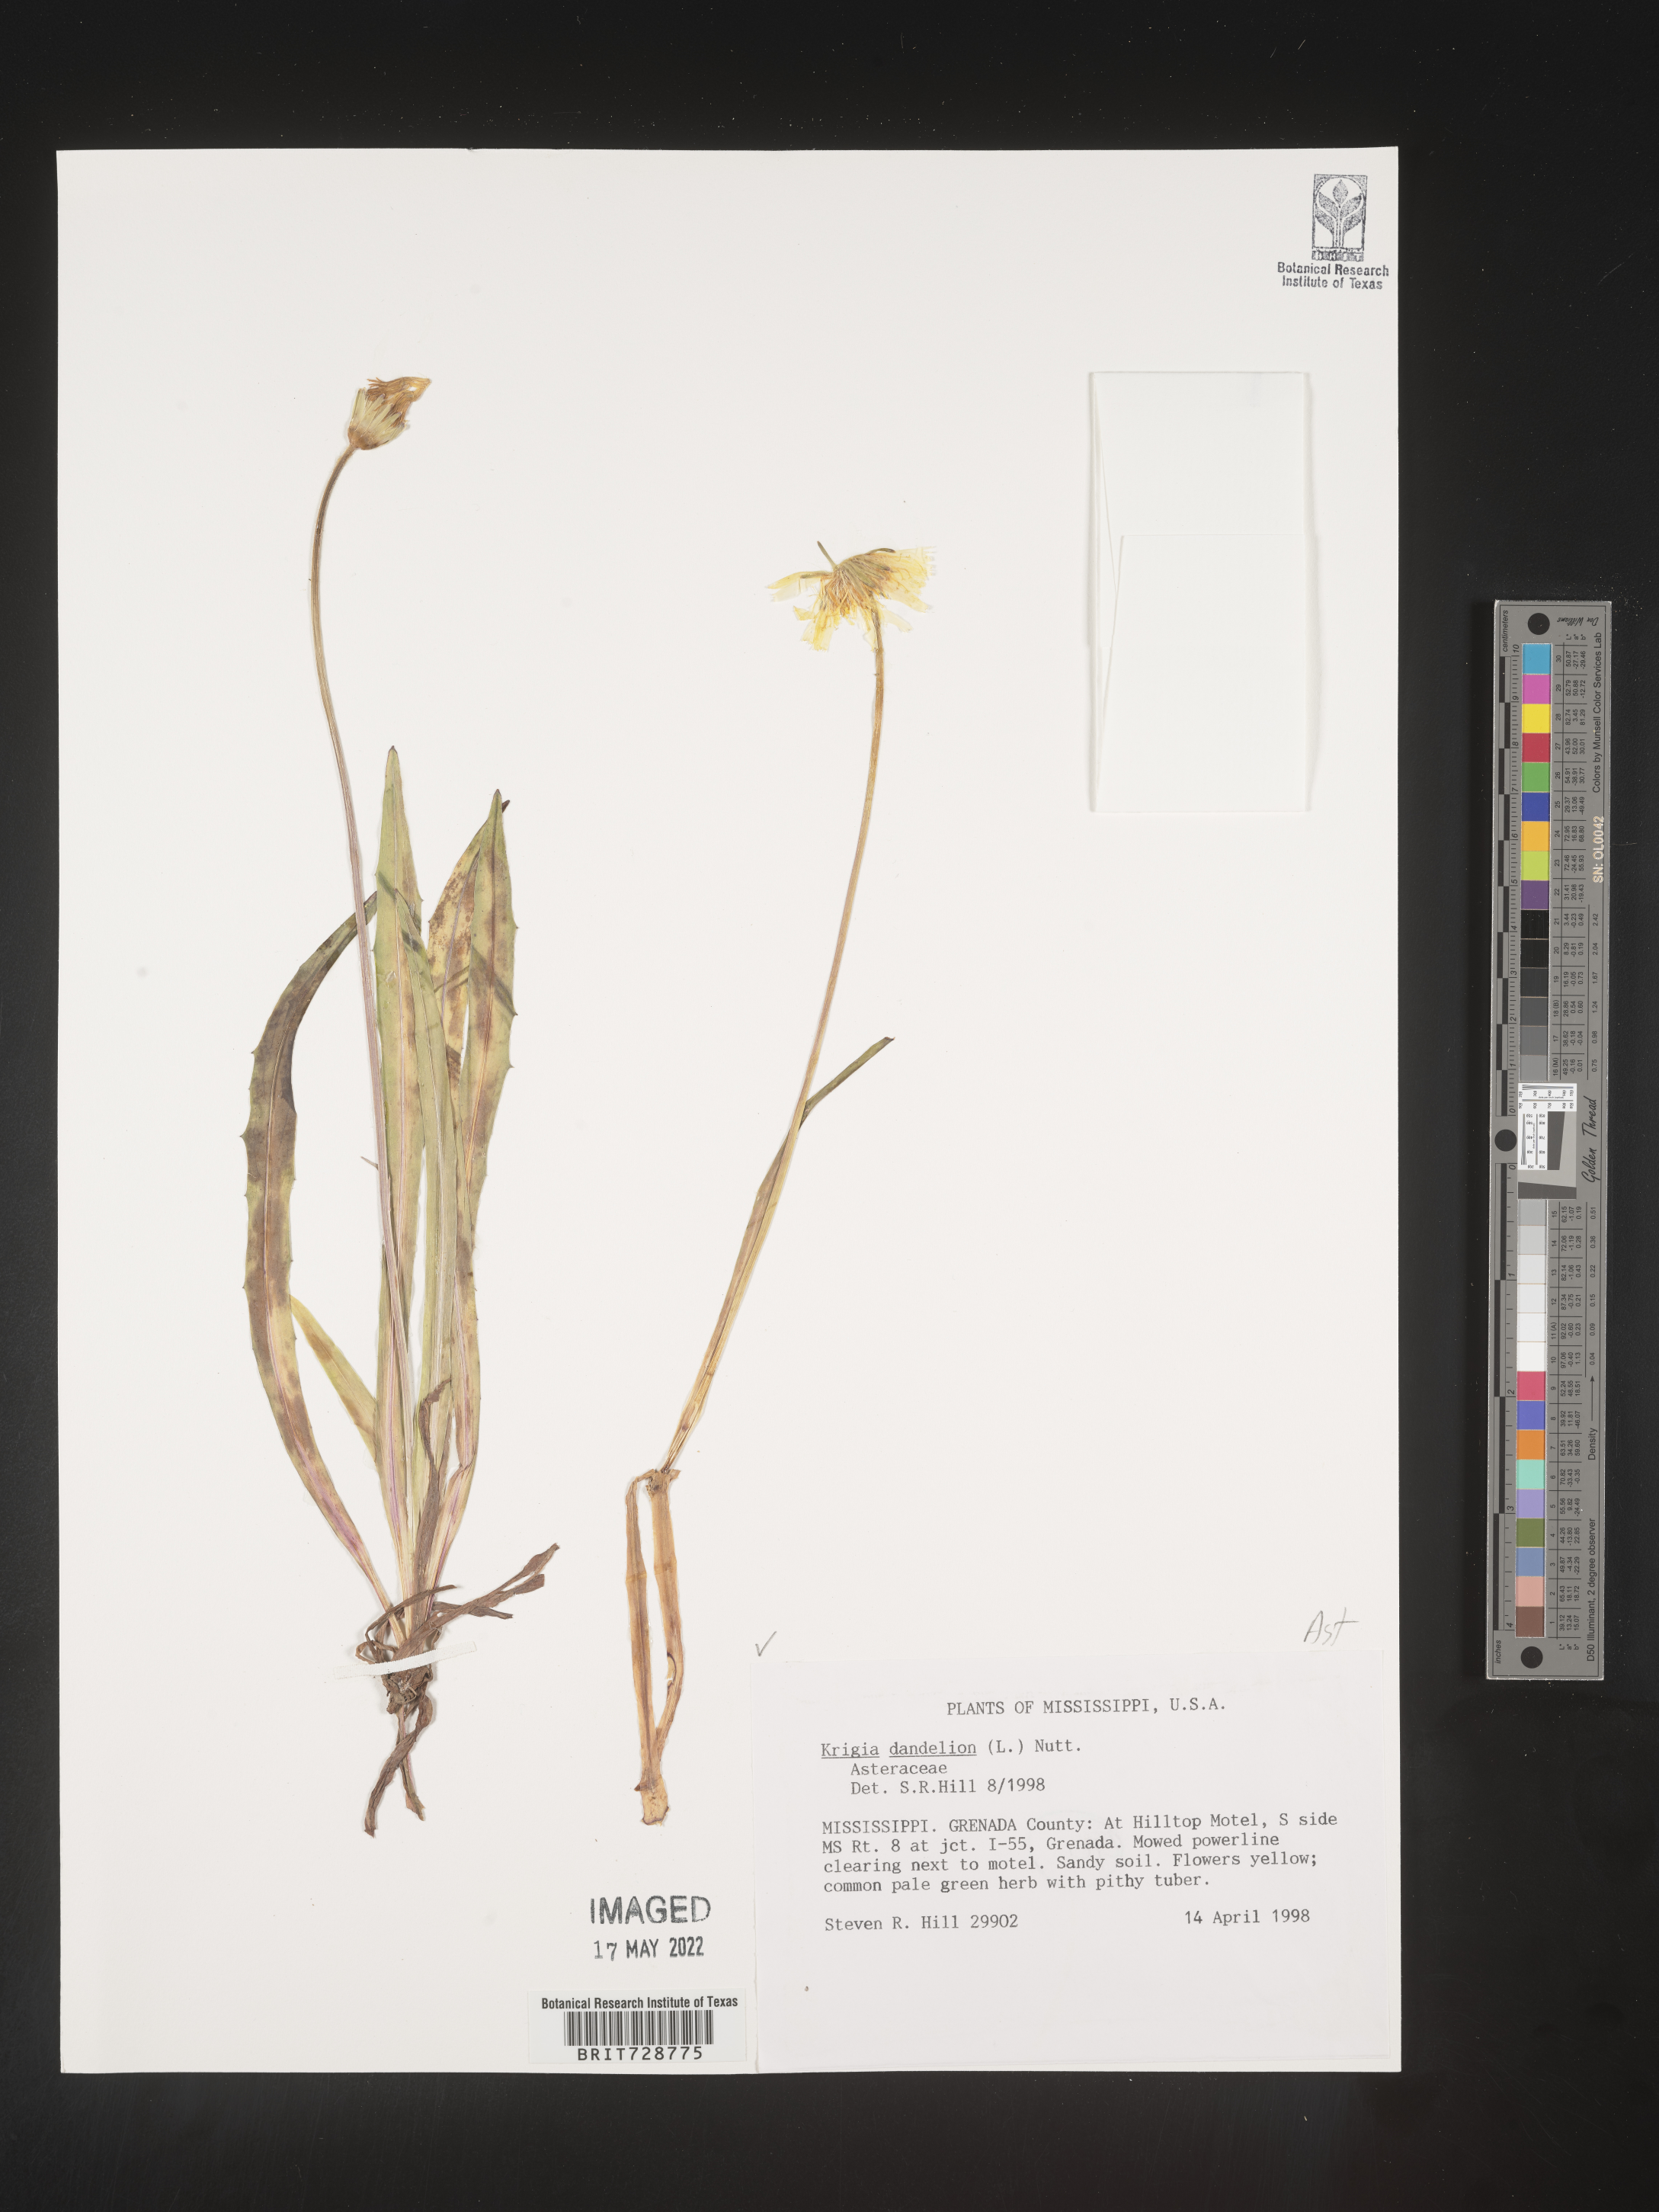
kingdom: Plantae
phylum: Tracheophyta
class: Magnoliopsida
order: Asterales
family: Asteraceae
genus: Krigia
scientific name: Krigia dandelion
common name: Colonial dwarf-dandelion
